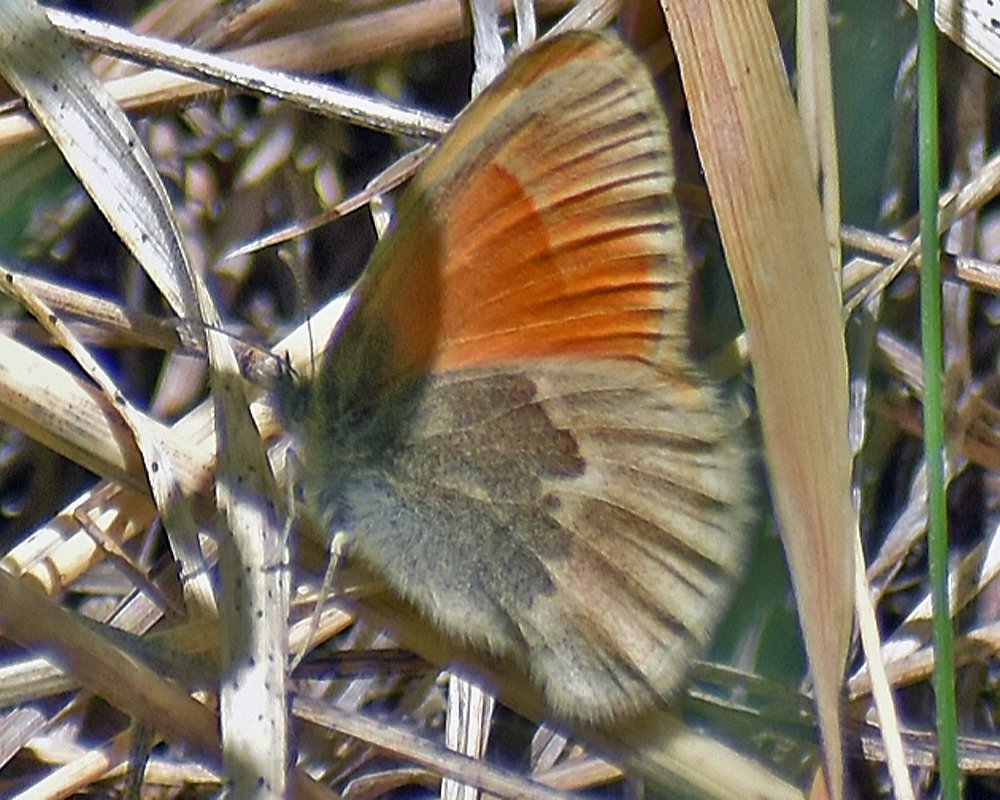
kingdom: Animalia
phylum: Arthropoda
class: Insecta
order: Lepidoptera
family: Nymphalidae
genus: Coenonympha
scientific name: Coenonympha tullia
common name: Large Heath
